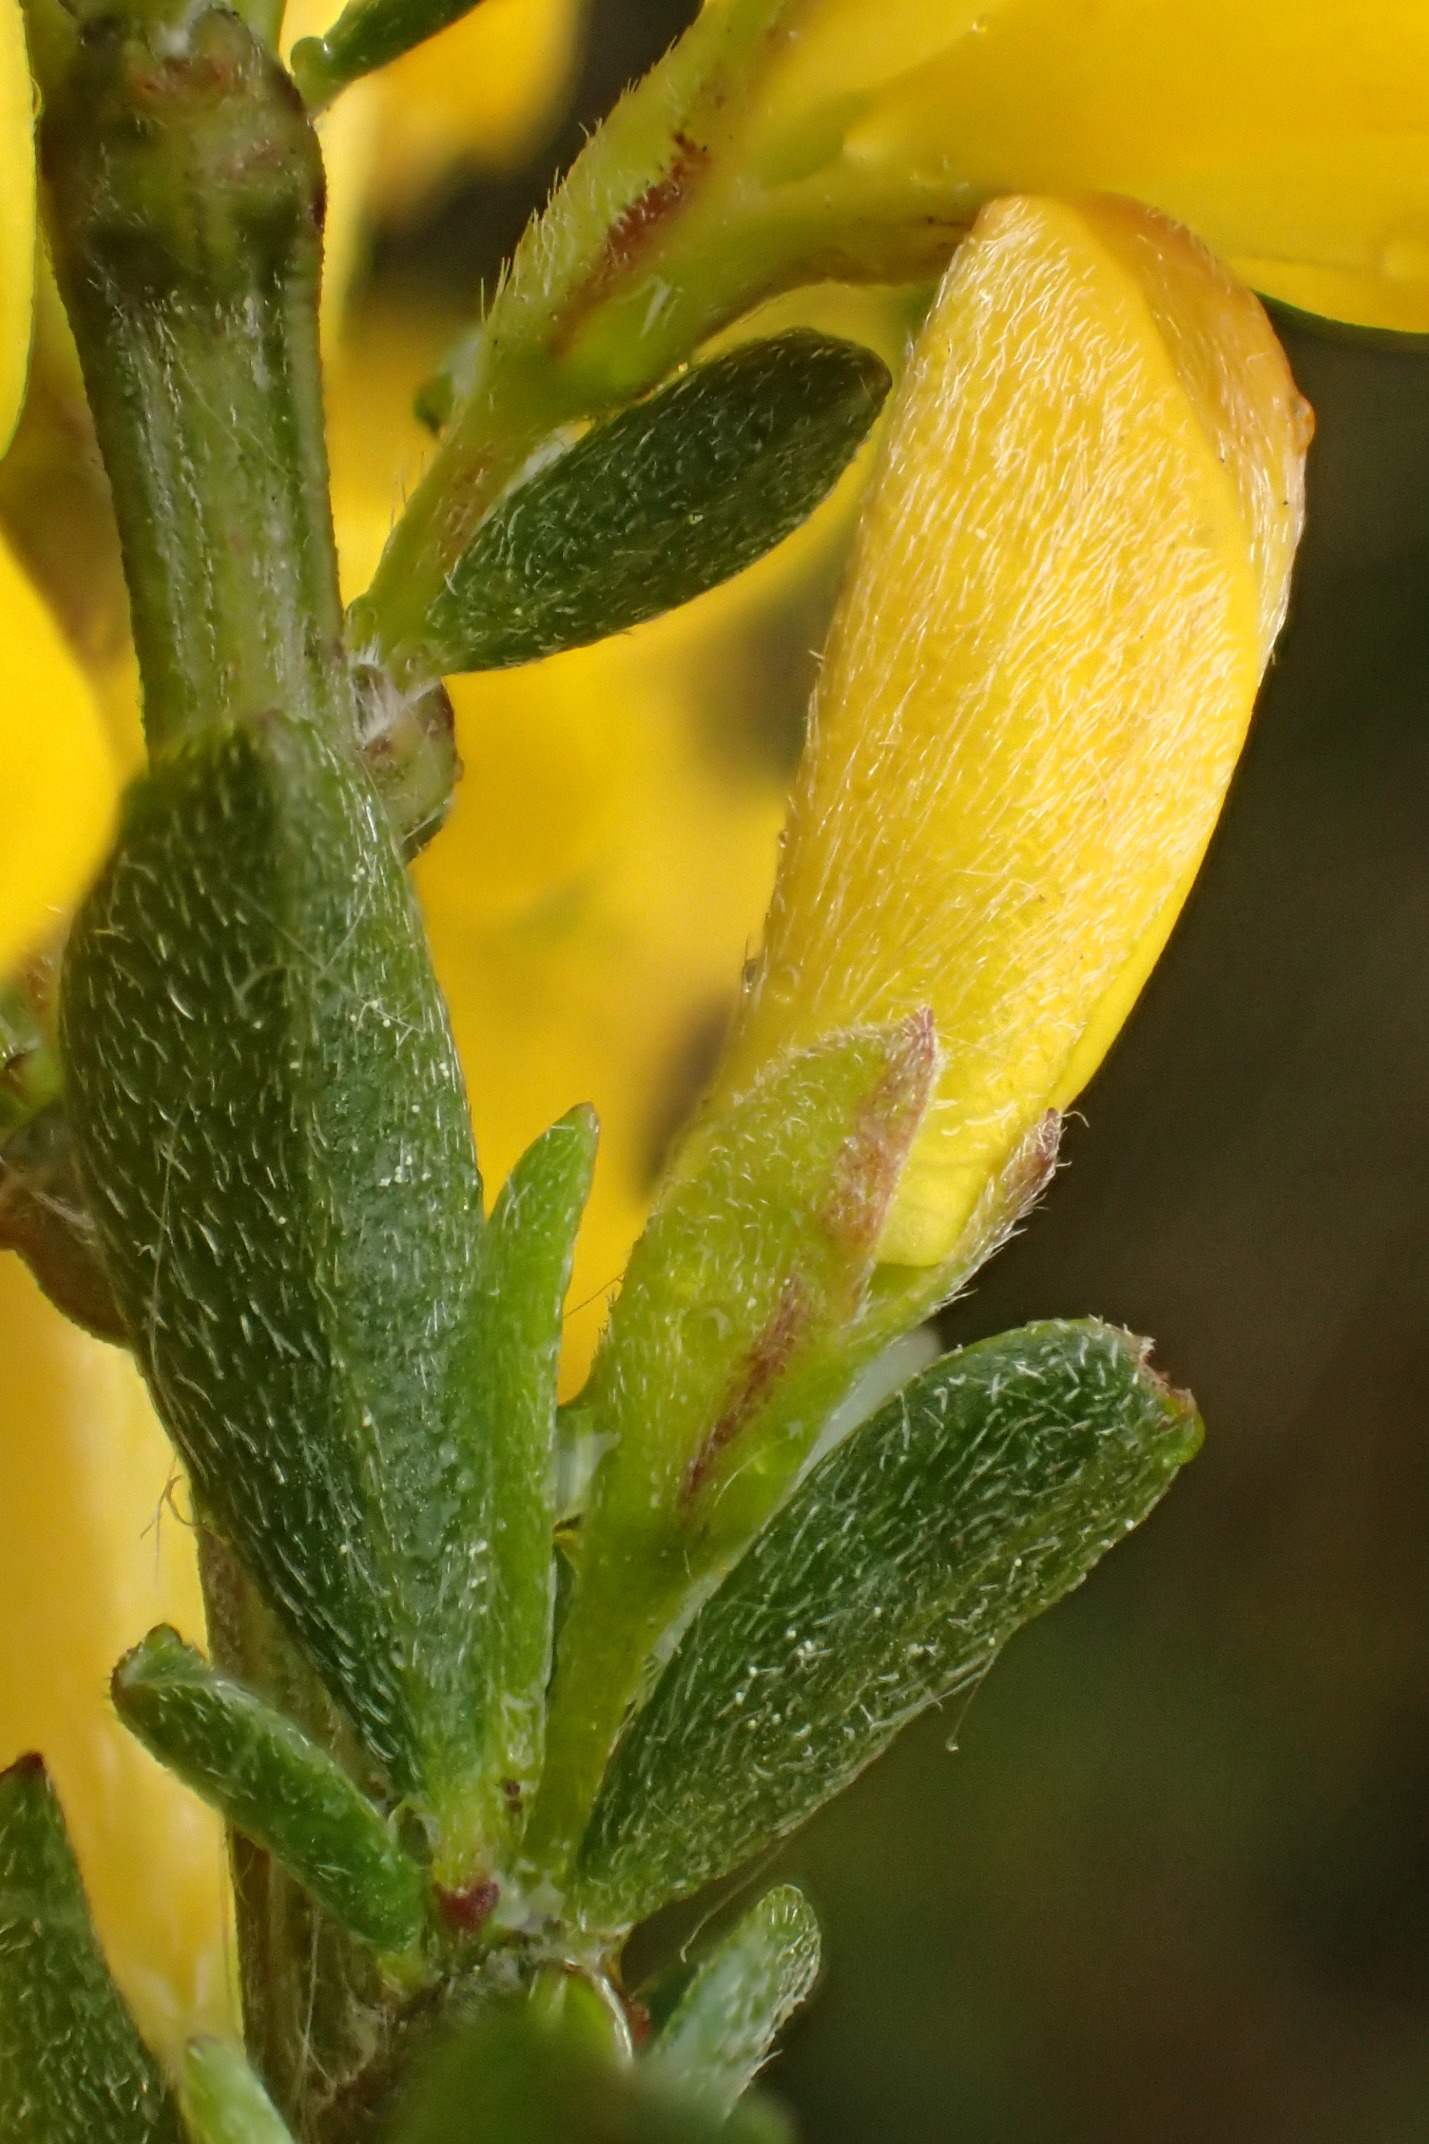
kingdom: Plantae
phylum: Tracheophyta
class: Magnoliopsida
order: Fabales
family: Fabaceae
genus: Genista
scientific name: Genista pilosa
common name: Håret visse
